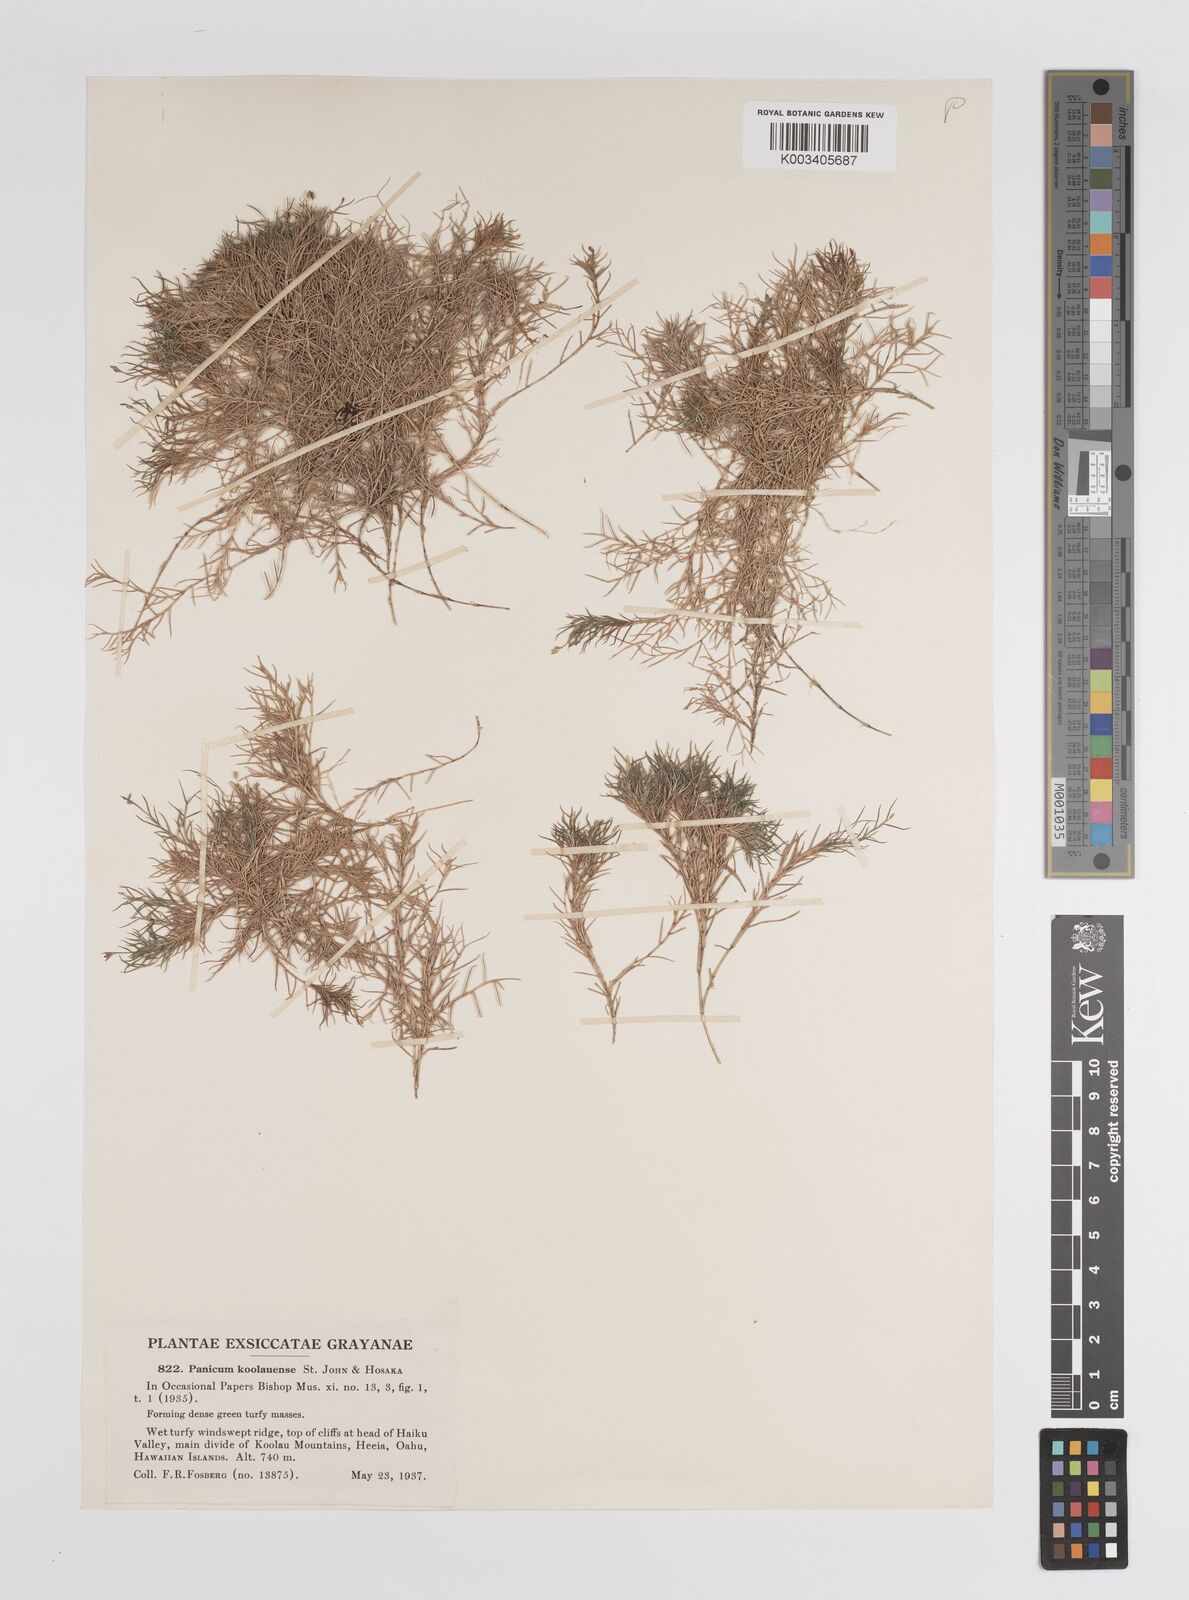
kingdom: Plantae
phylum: Tracheophyta
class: Liliopsida
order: Poales
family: Poaceae
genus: Dichanthelium
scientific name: Dichanthelium koolauense
